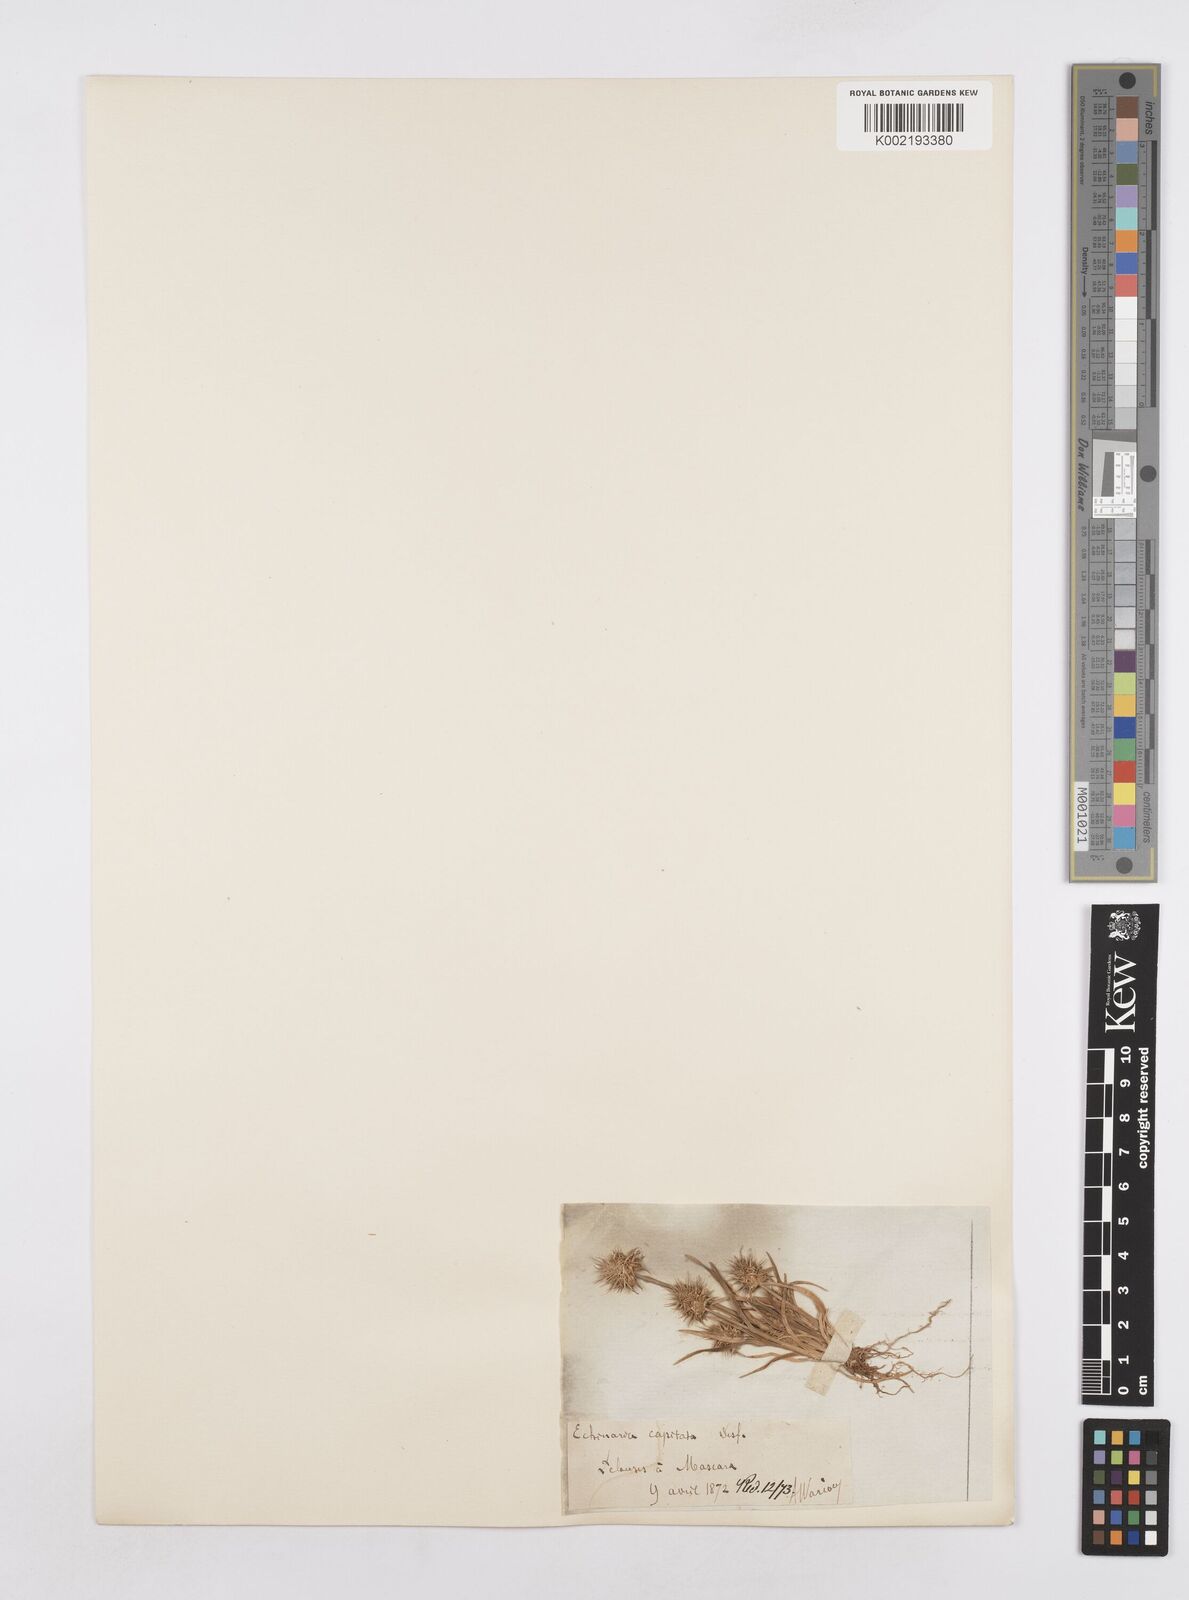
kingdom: Plantae
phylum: Tracheophyta
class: Liliopsida
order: Poales
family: Poaceae
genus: Echinaria
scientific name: Echinaria capitata
